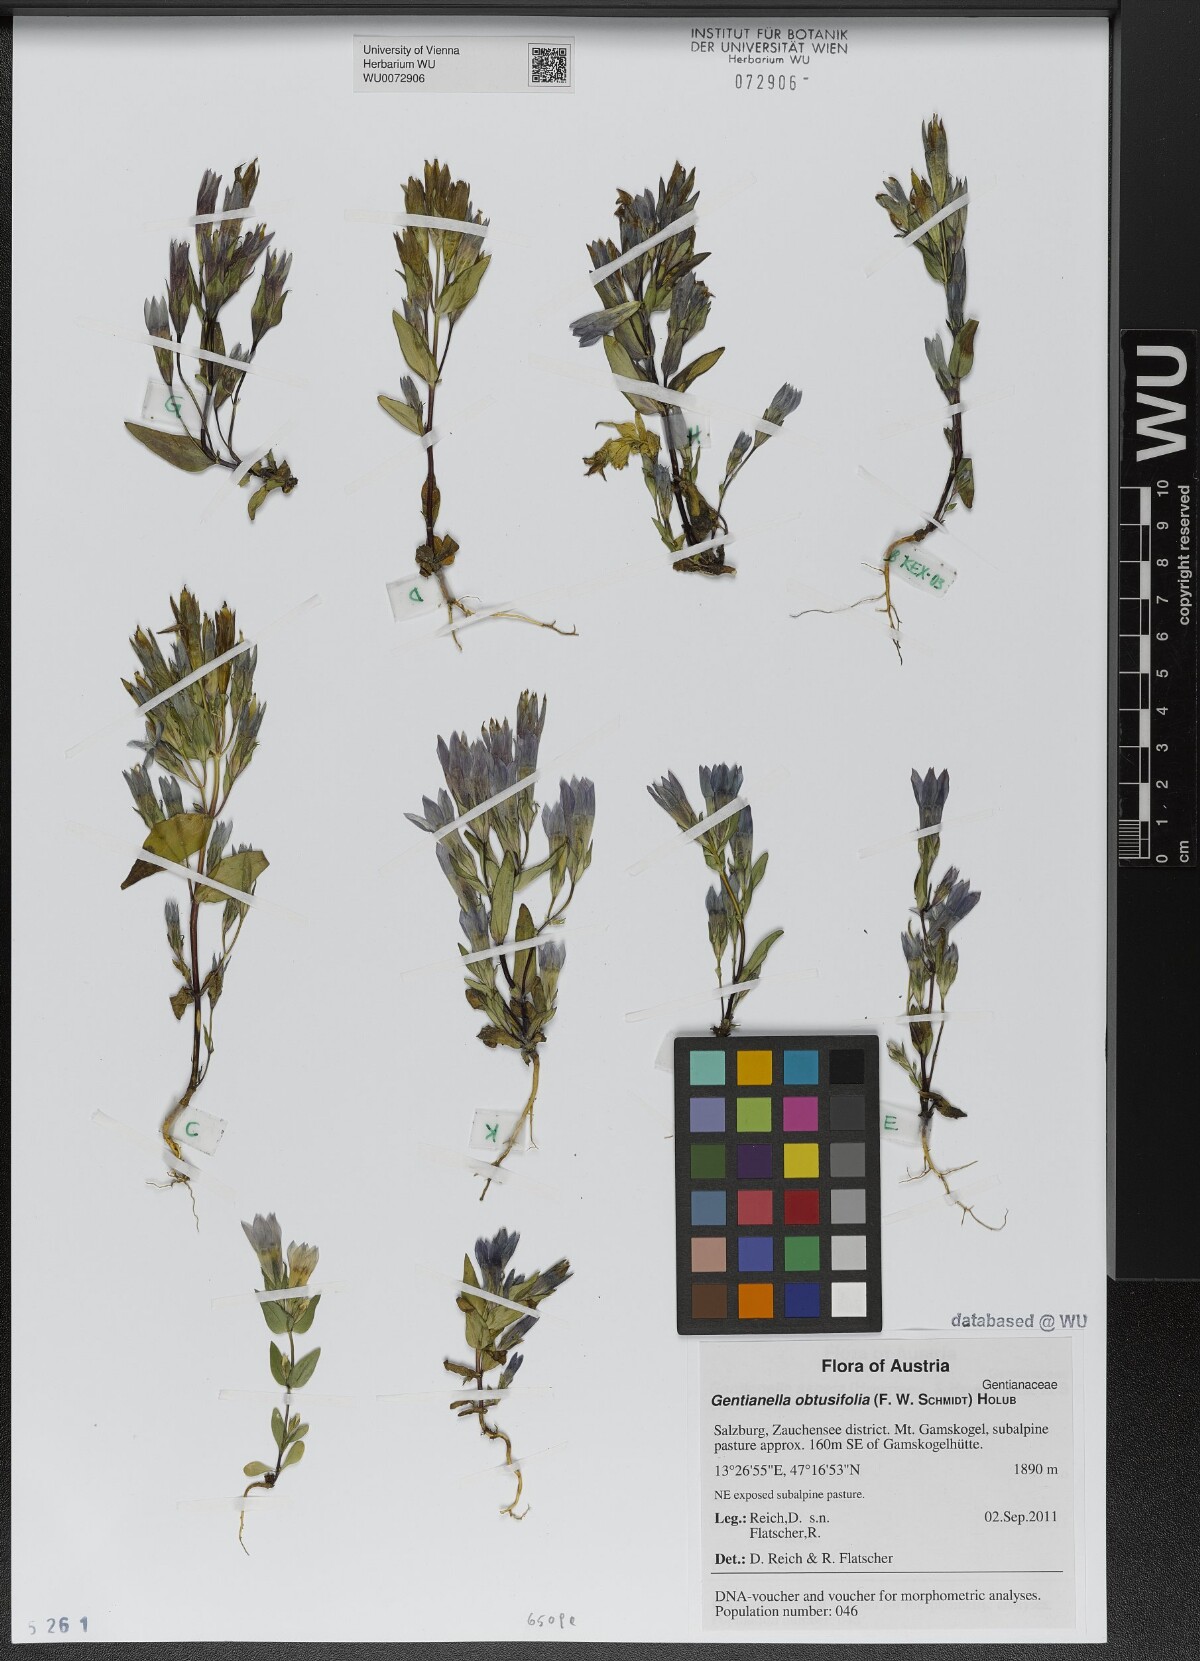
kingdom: Plantae
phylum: Tracheophyta
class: Magnoliopsida
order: Gentianales
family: Gentianaceae
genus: Gentianella
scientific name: Gentianella obtusifolia
